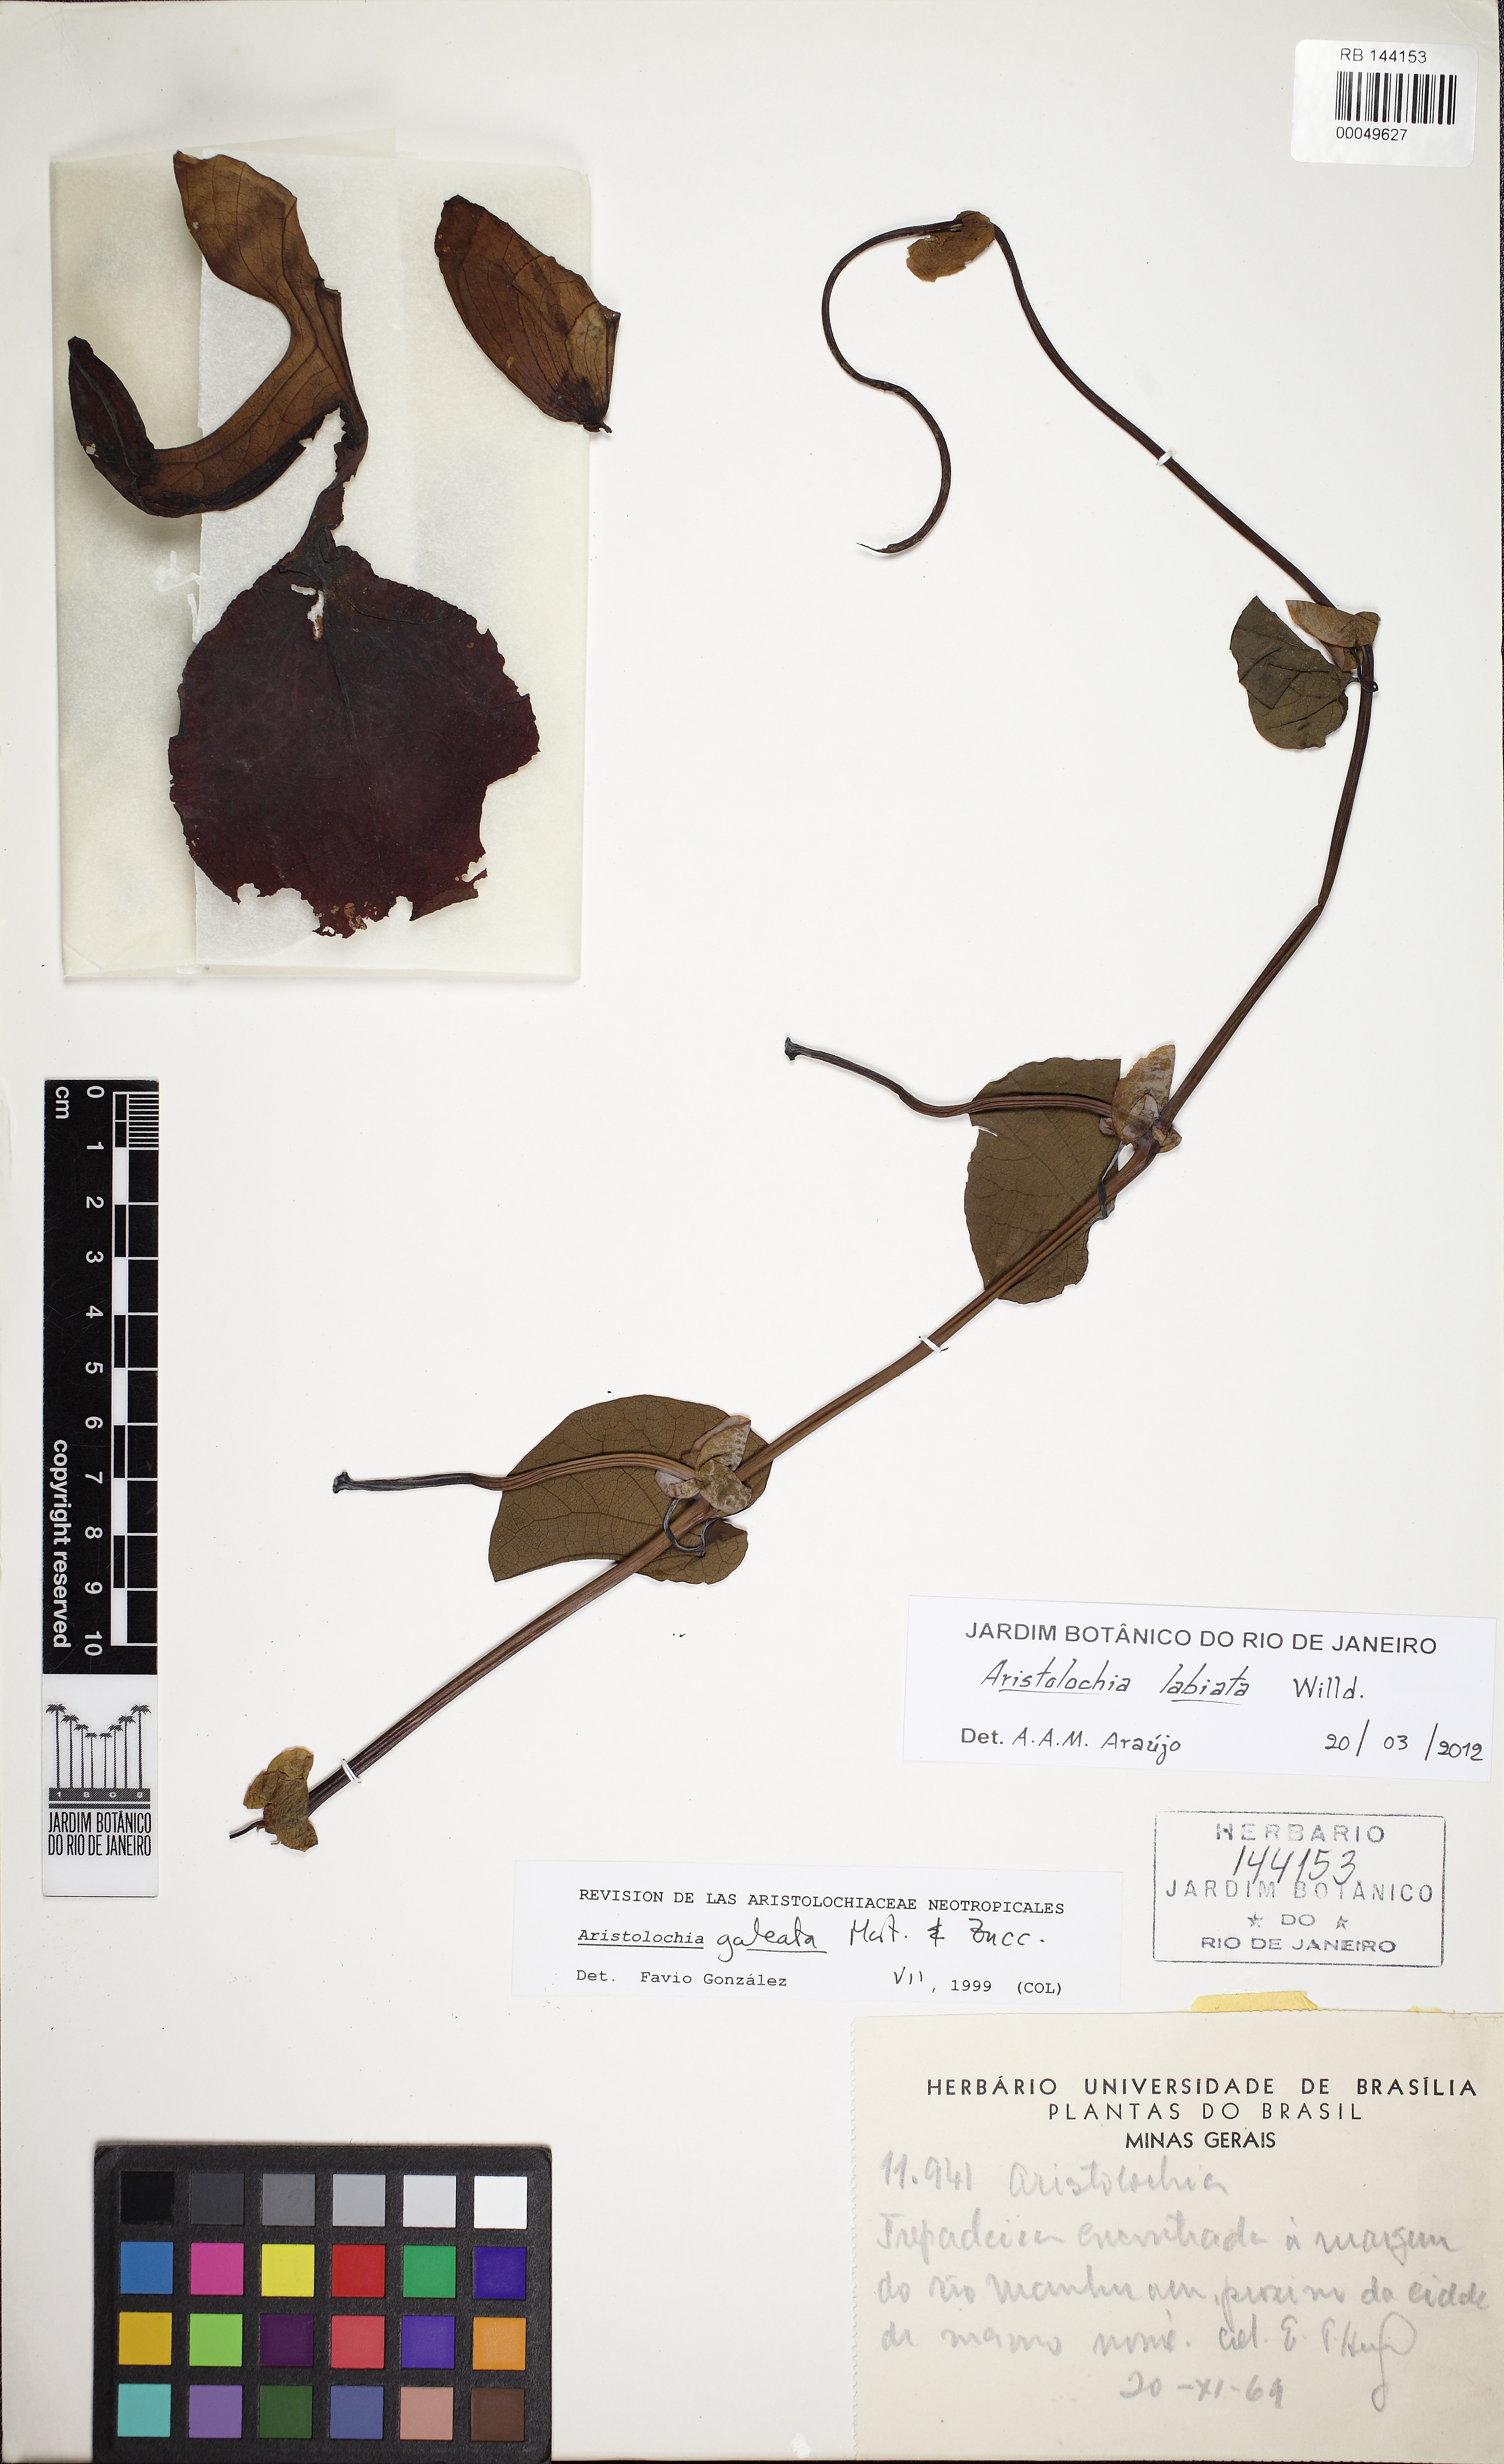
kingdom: Plantae
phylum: Tracheophyta
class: Magnoliopsida
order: Piperales
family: Aristolochiaceae
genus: Aristolochia
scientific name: Aristolochia labiata
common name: Mottled dutchman's pipe
